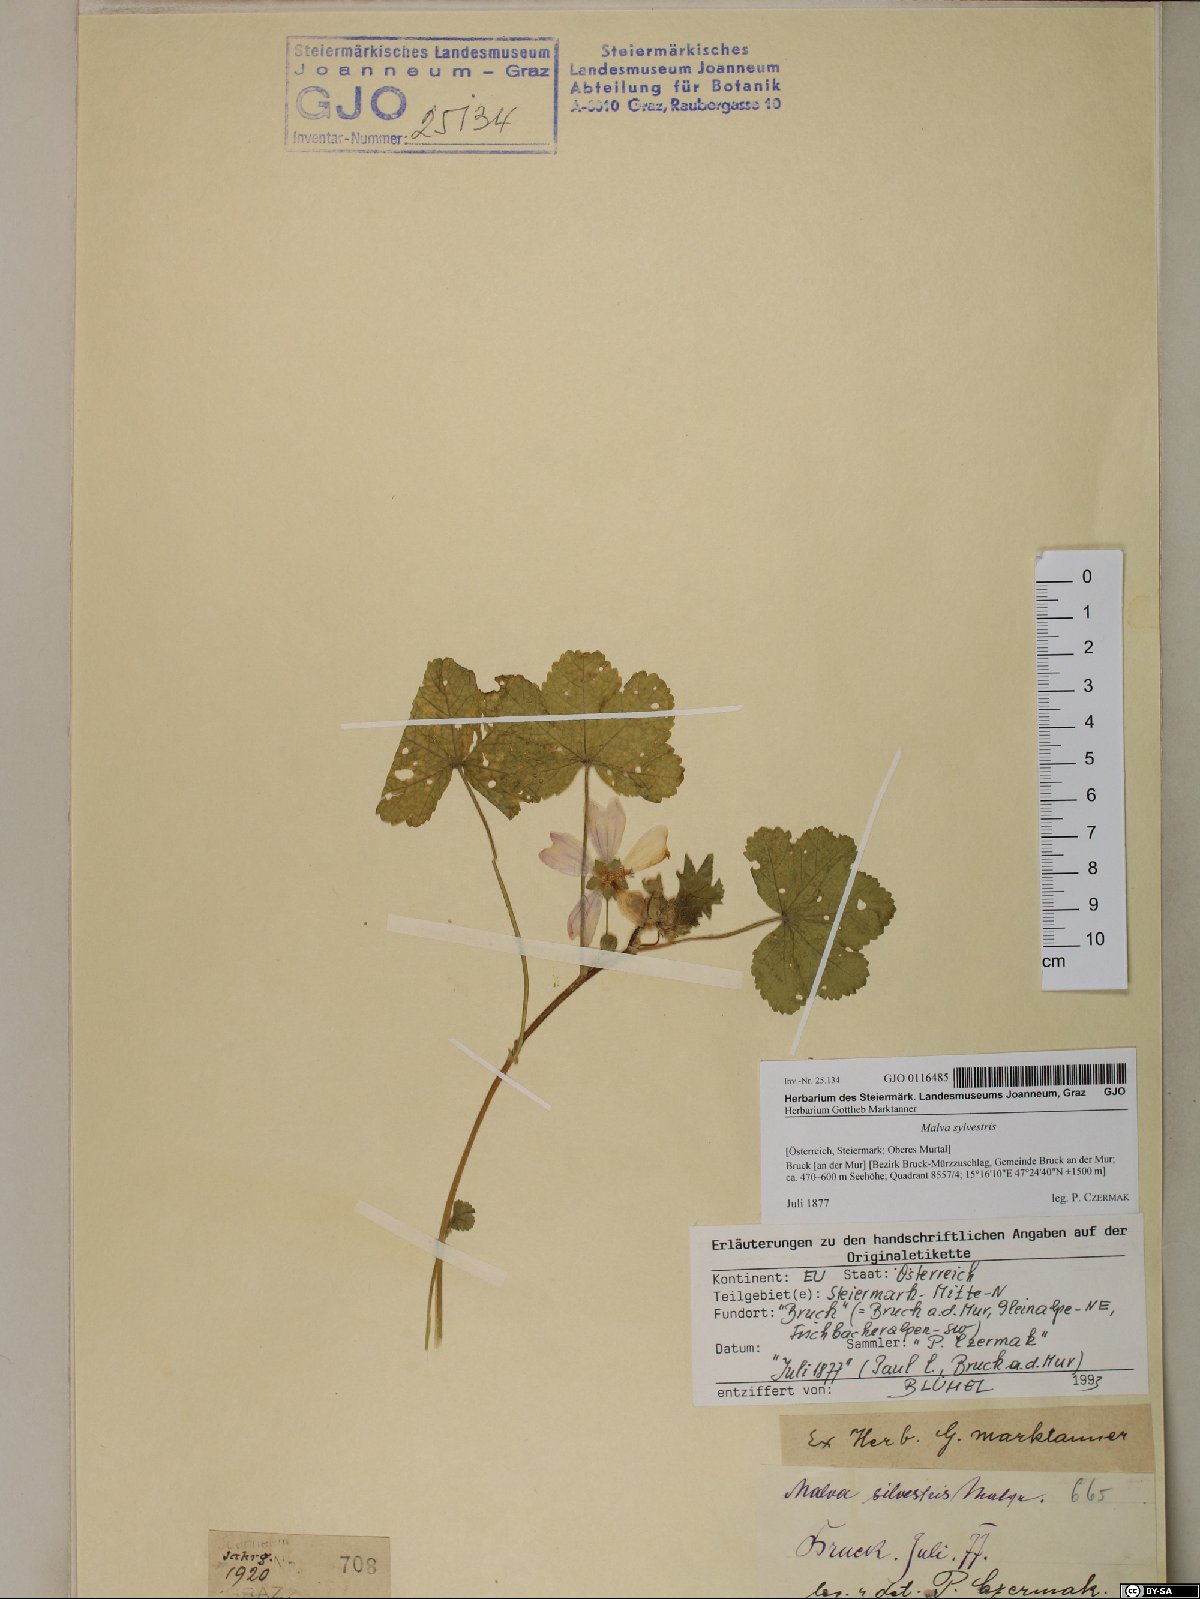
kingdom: Plantae
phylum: Tracheophyta
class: Magnoliopsida
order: Malvales
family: Malvaceae
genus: Malva
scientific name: Malva sylvestris
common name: Common mallow
